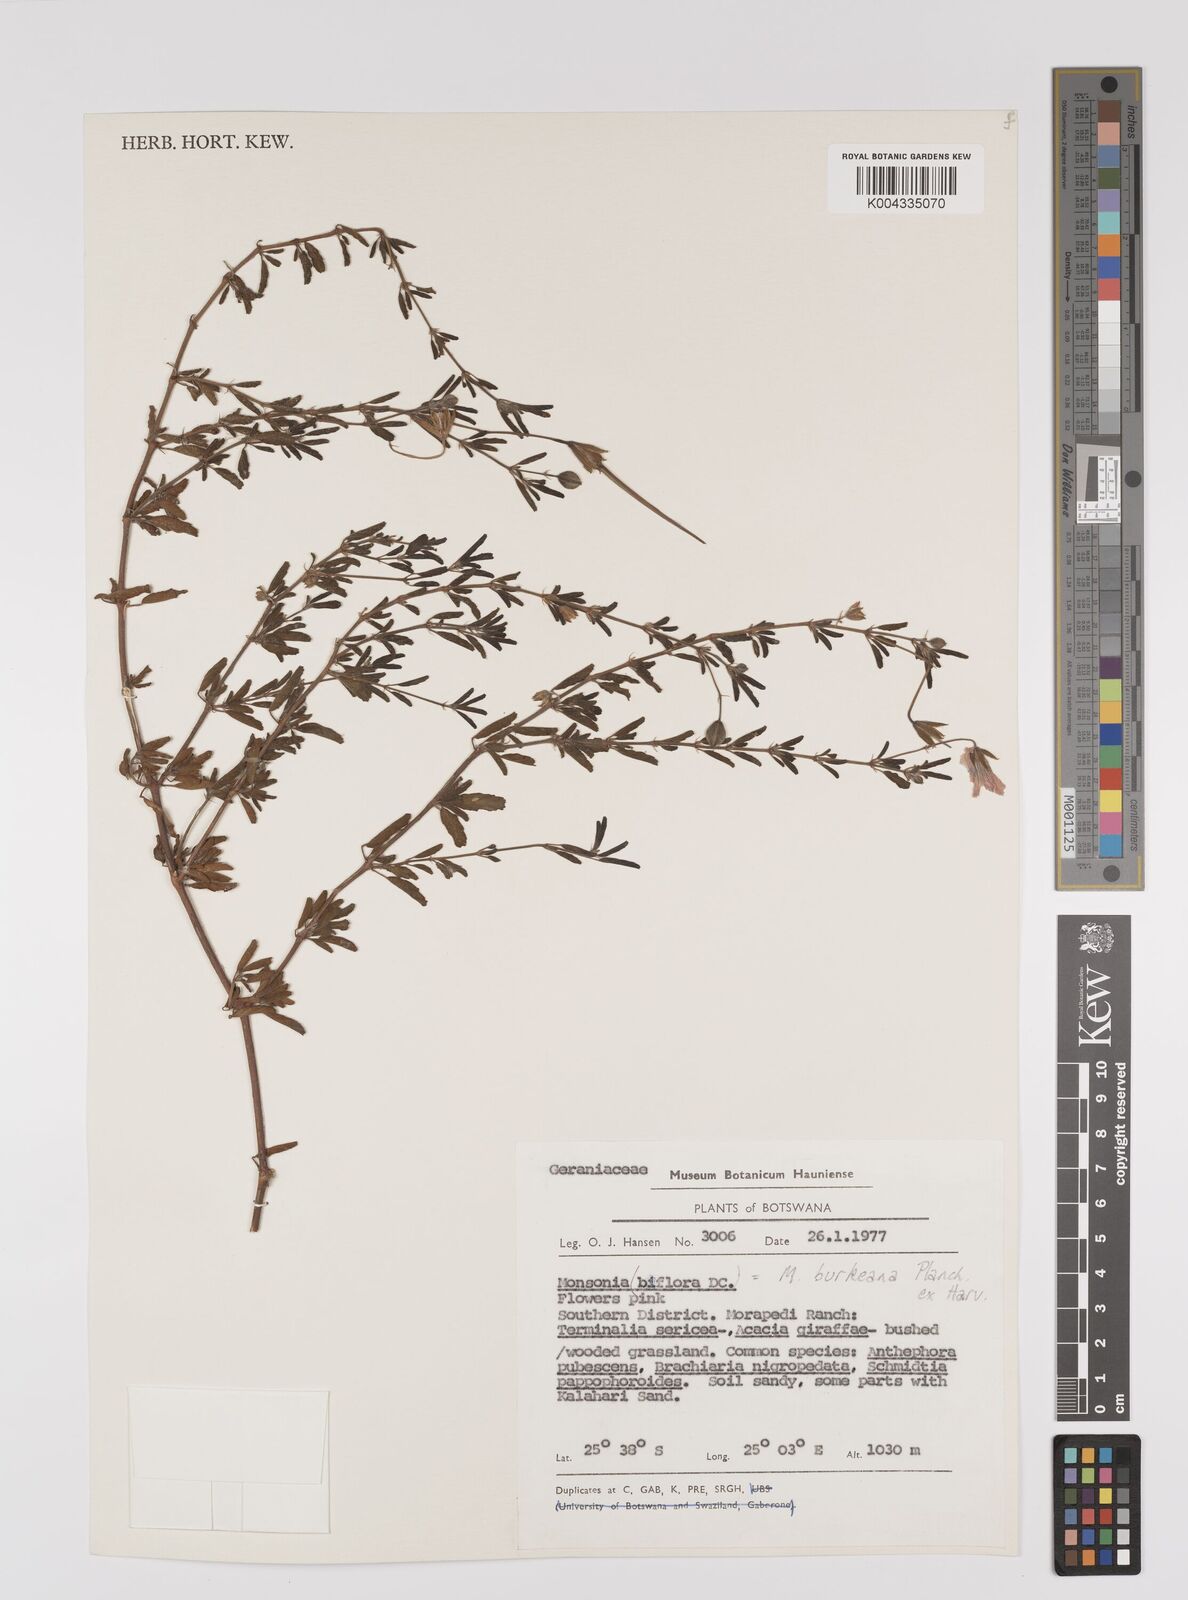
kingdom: Plantae
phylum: Tracheophyta
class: Magnoliopsida
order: Geraniales
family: Geraniaceae
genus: Monsonia
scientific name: Monsonia biflora
